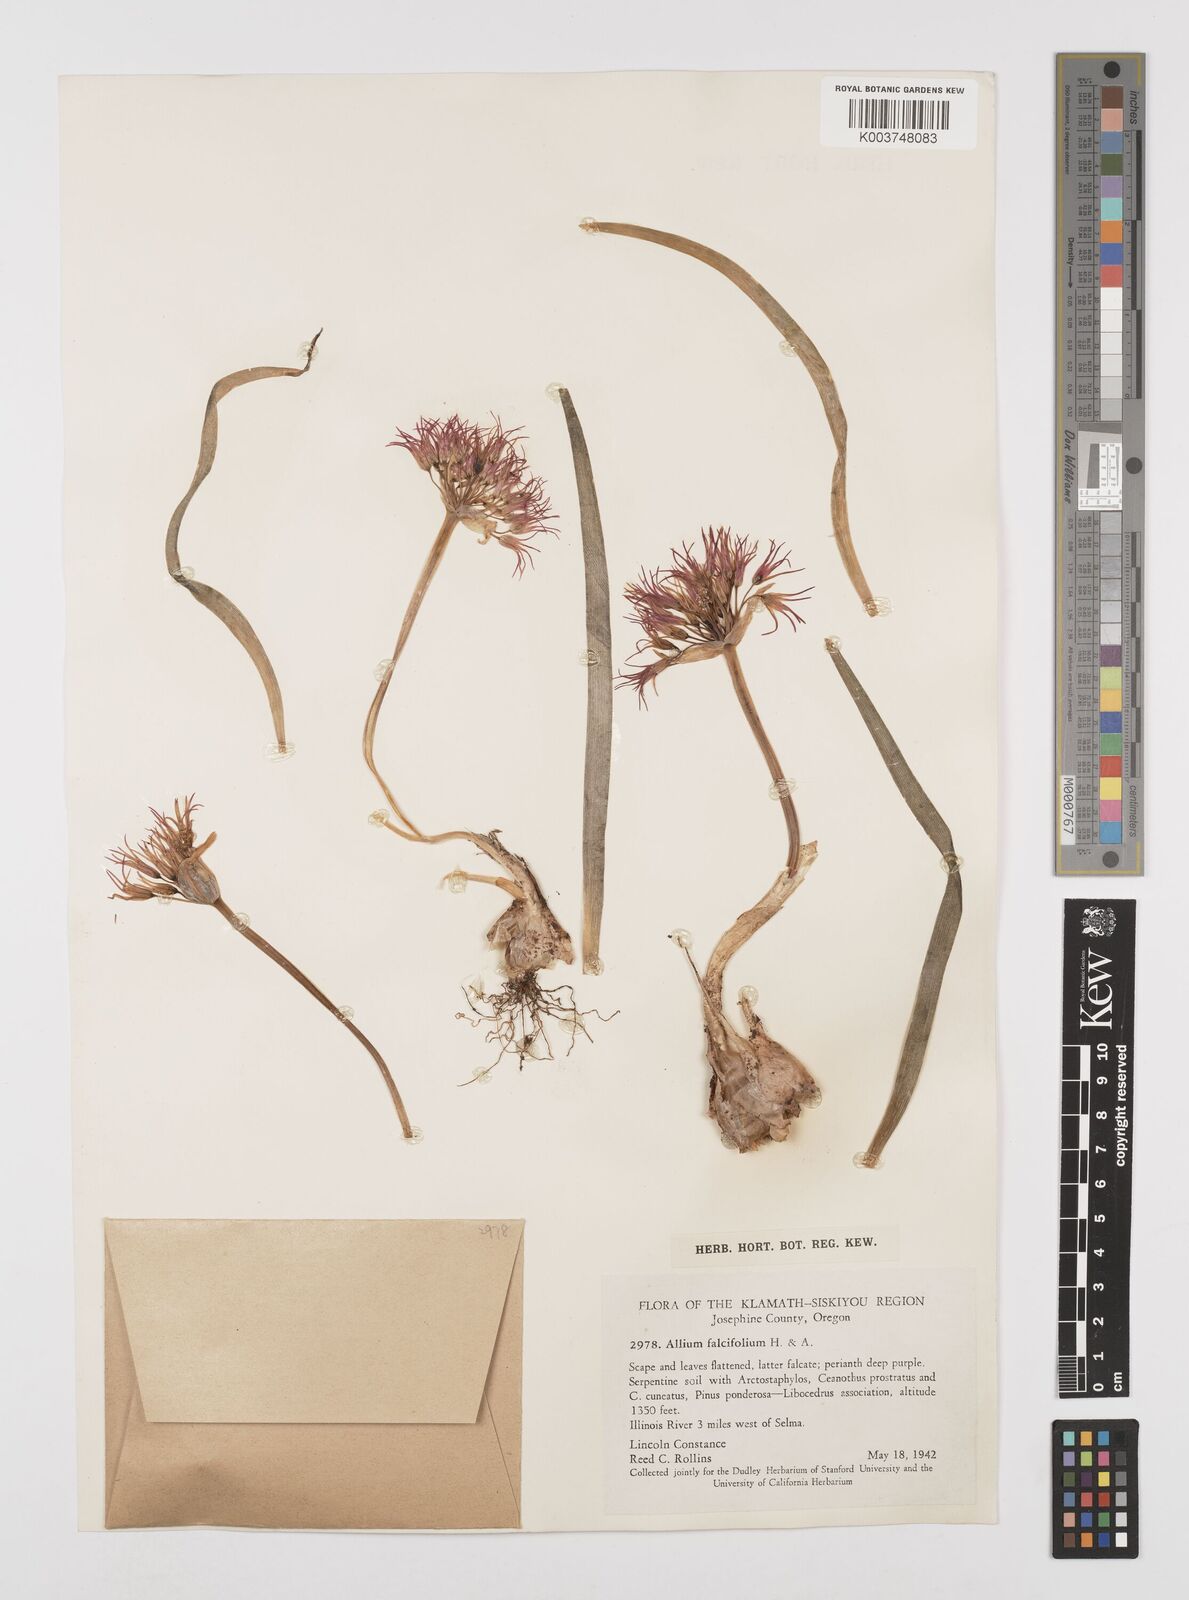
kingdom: Plantae
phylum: Tracheophyta
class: Liliopsida
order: Asparagales
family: Amaryllidaceae
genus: Allium
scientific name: Allium falcifolium
